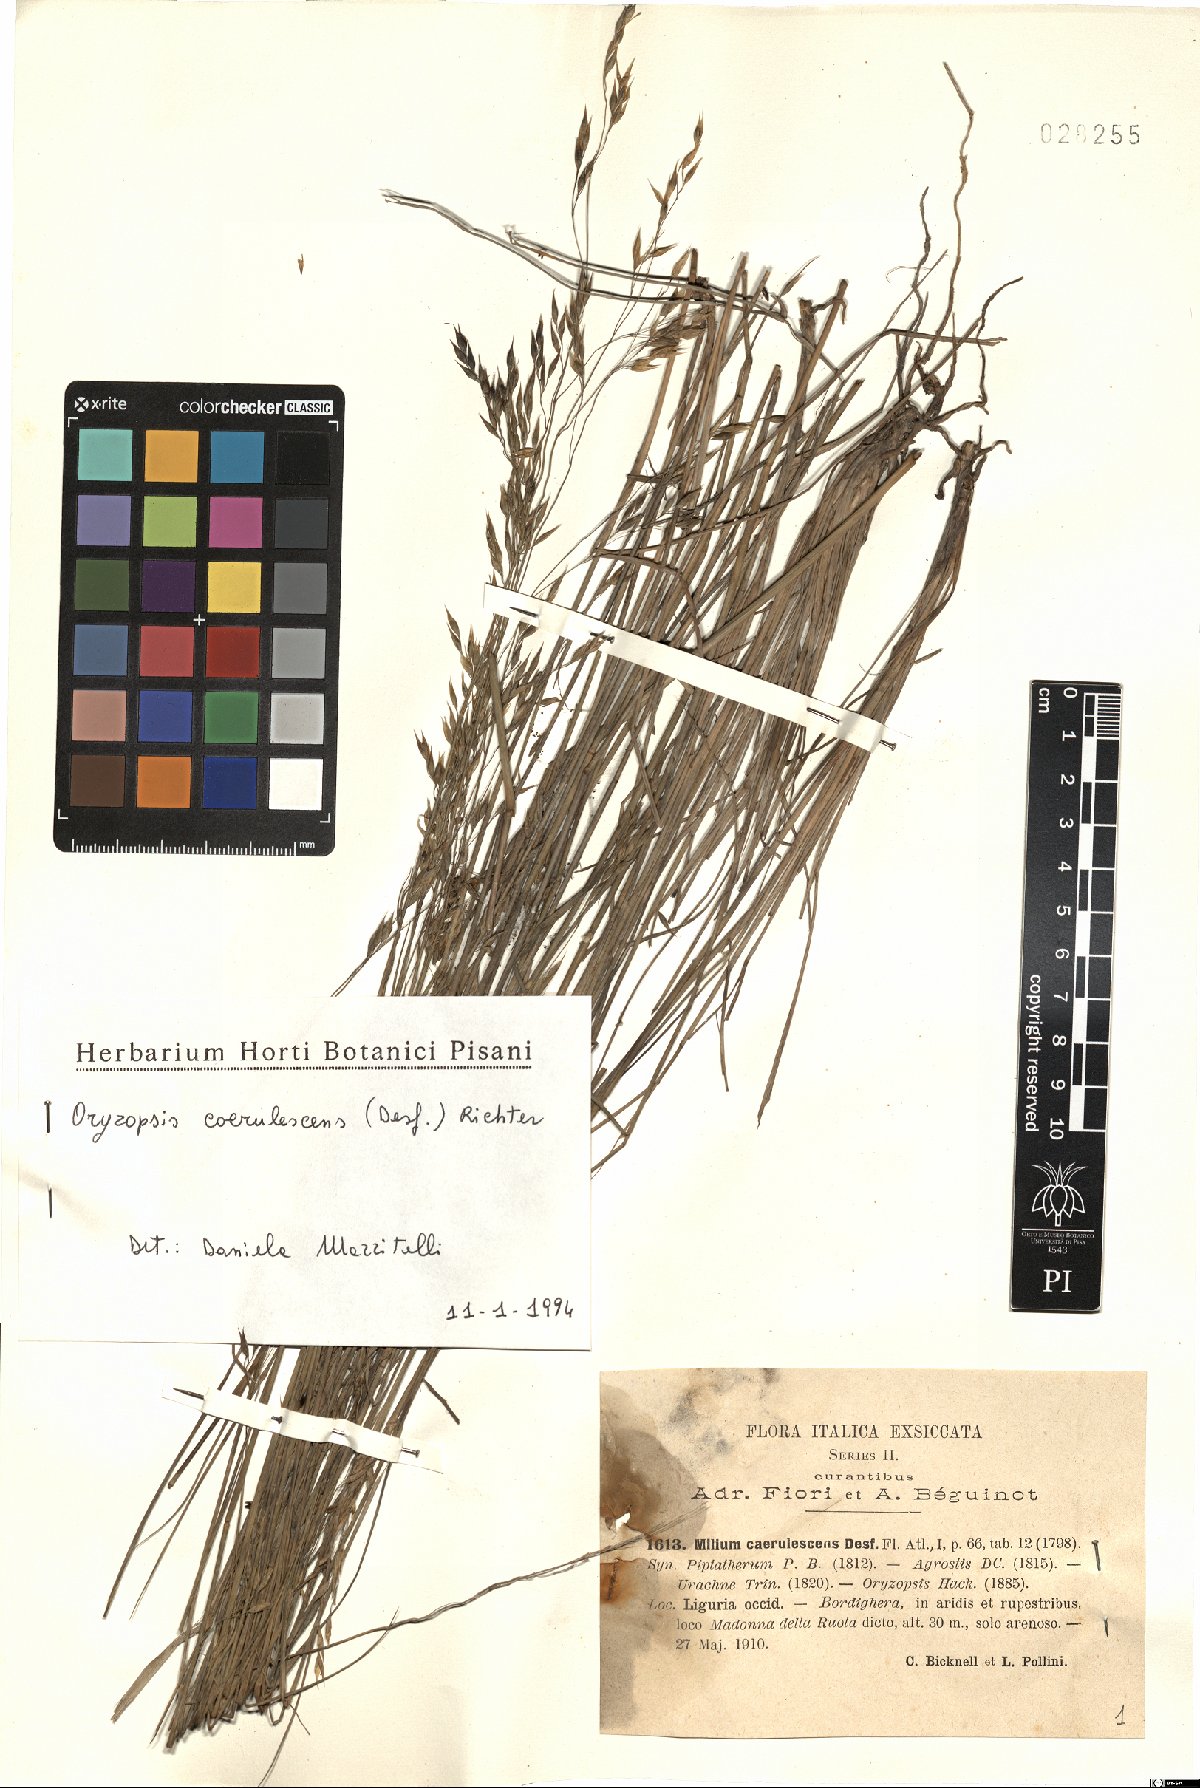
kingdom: Plantae
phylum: Tracheophyta
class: Liliopsida
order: Poales
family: Poaceae
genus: Piptatherum
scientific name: Piptatherum coerulescens
